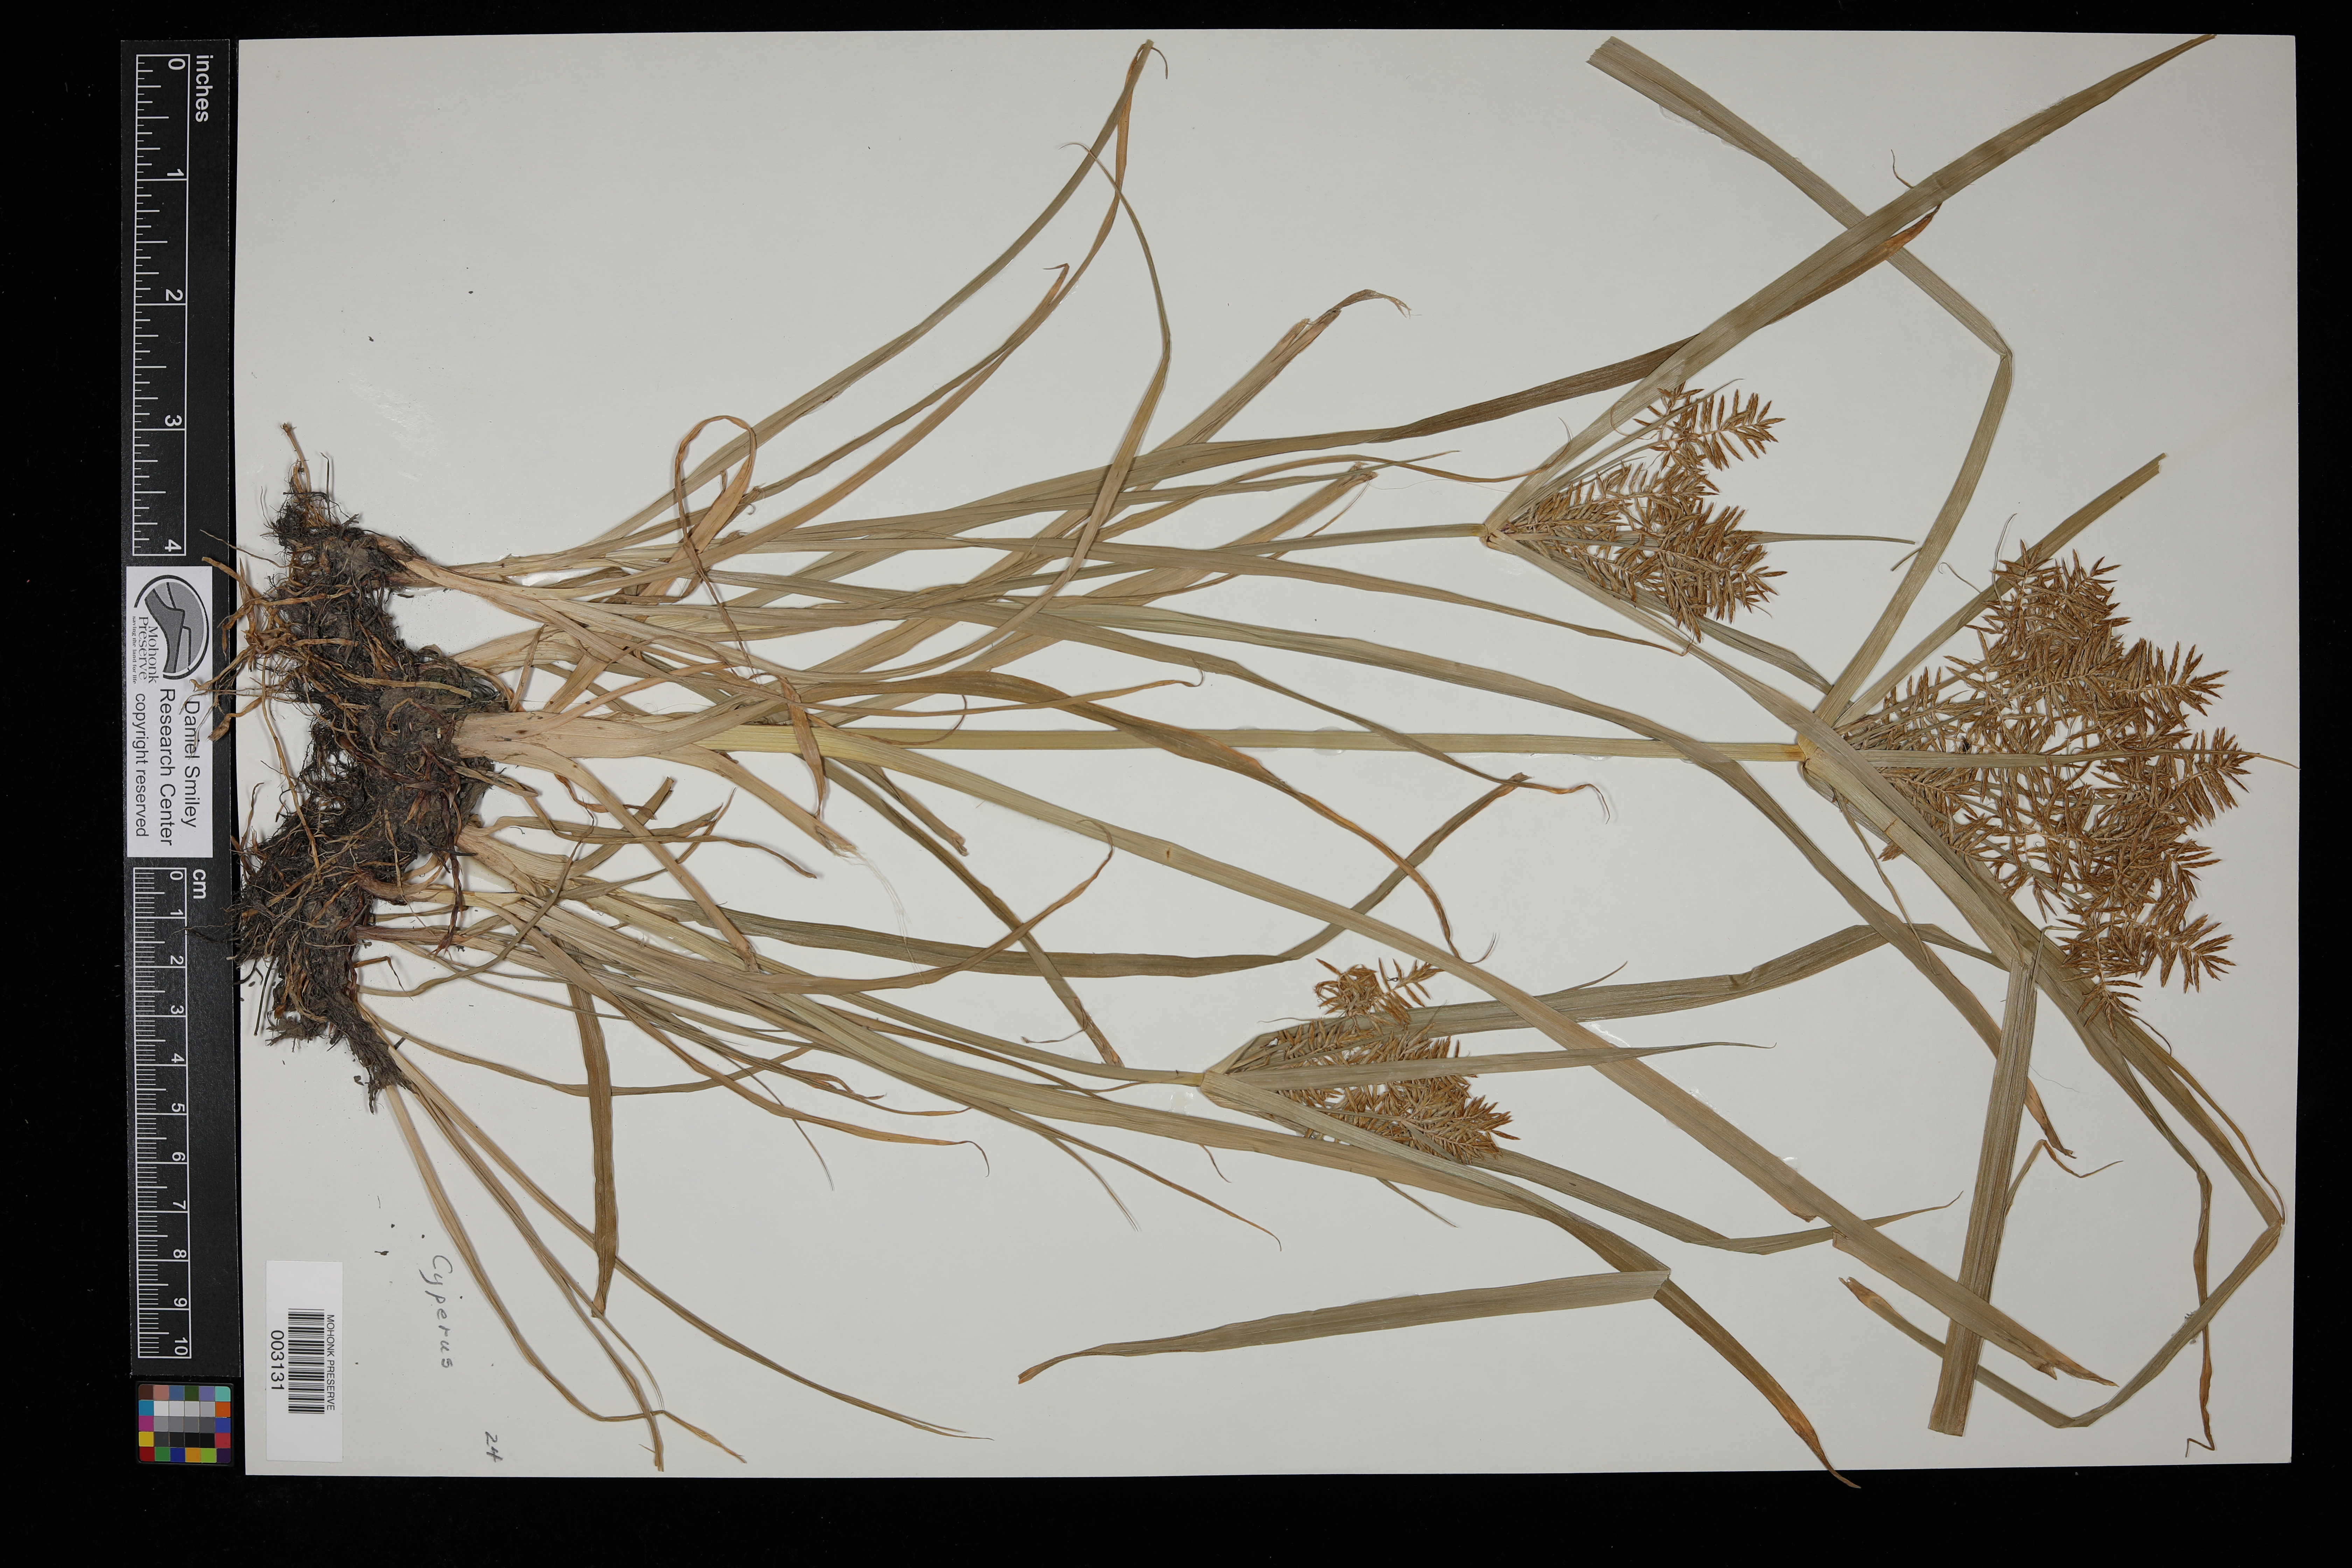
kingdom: Plantae
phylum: Tracheophyta
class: Liliopsida
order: Poales
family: Cyperaceae
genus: Cyperus
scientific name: Cyperus
